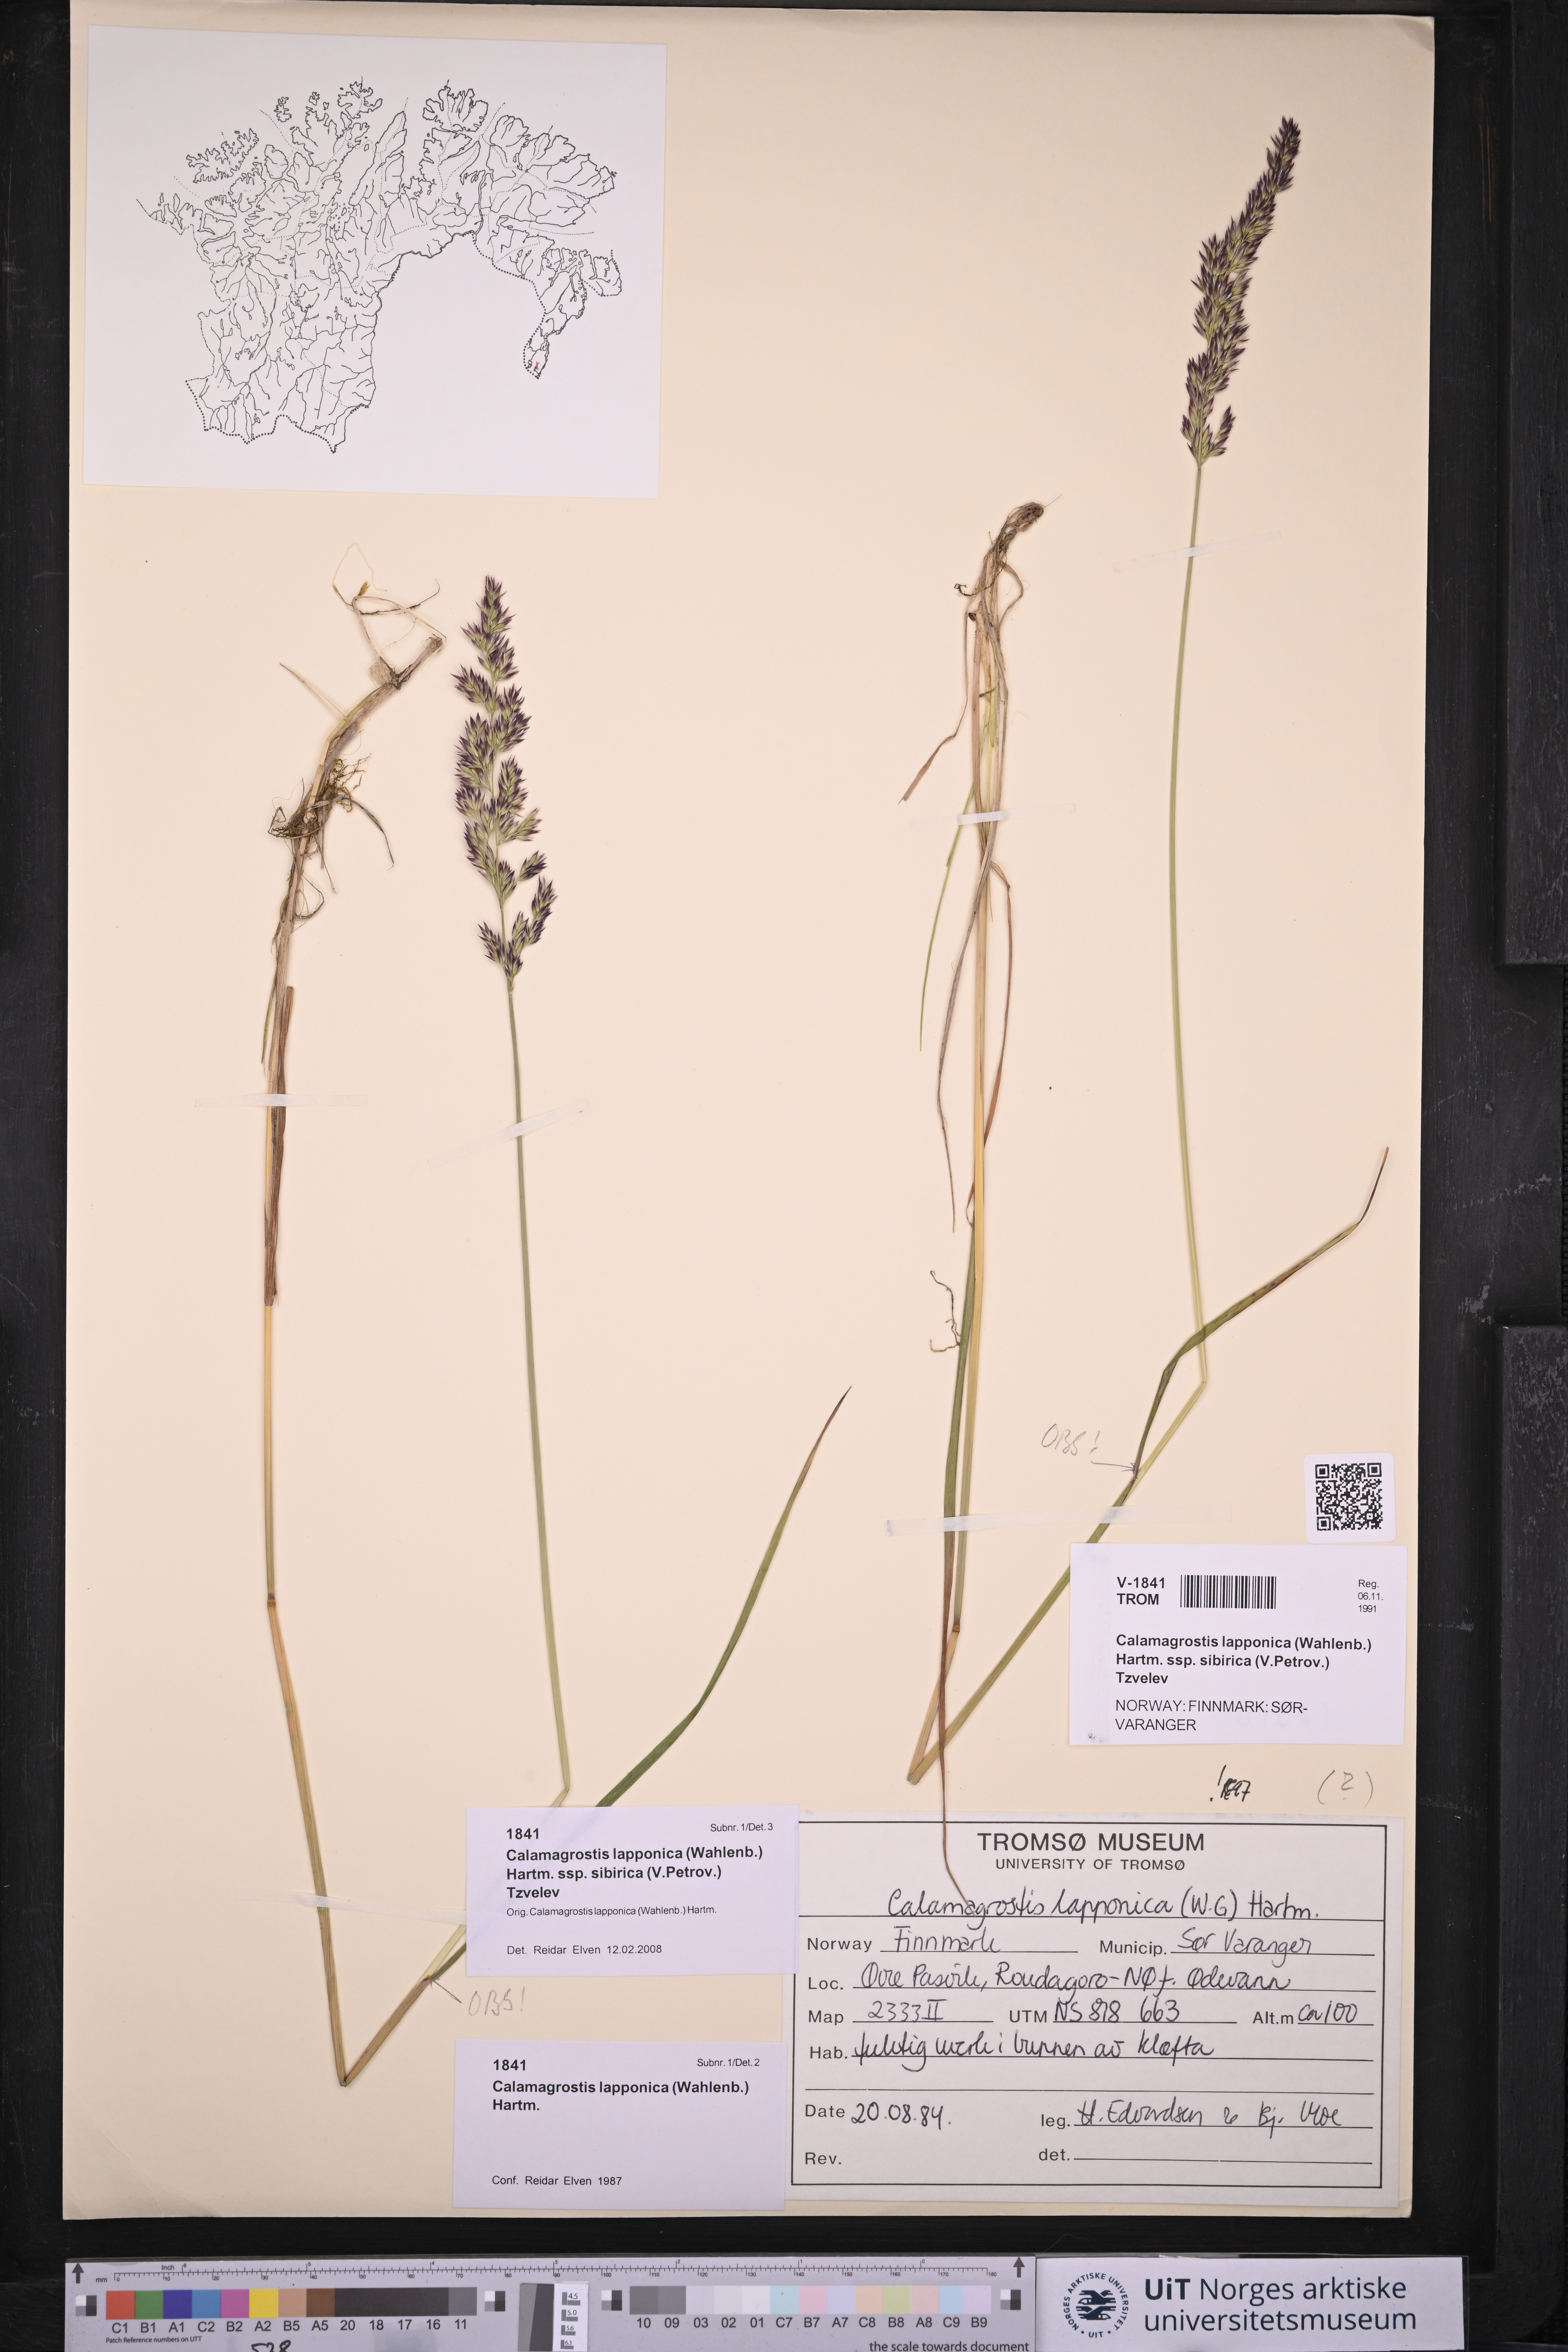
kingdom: Plantae
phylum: Tracheophyta
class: Liliopsida
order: Poales
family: Poaceae
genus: Calamagrostis
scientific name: Calamagrostis lapponica
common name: Lapland reedgrass
